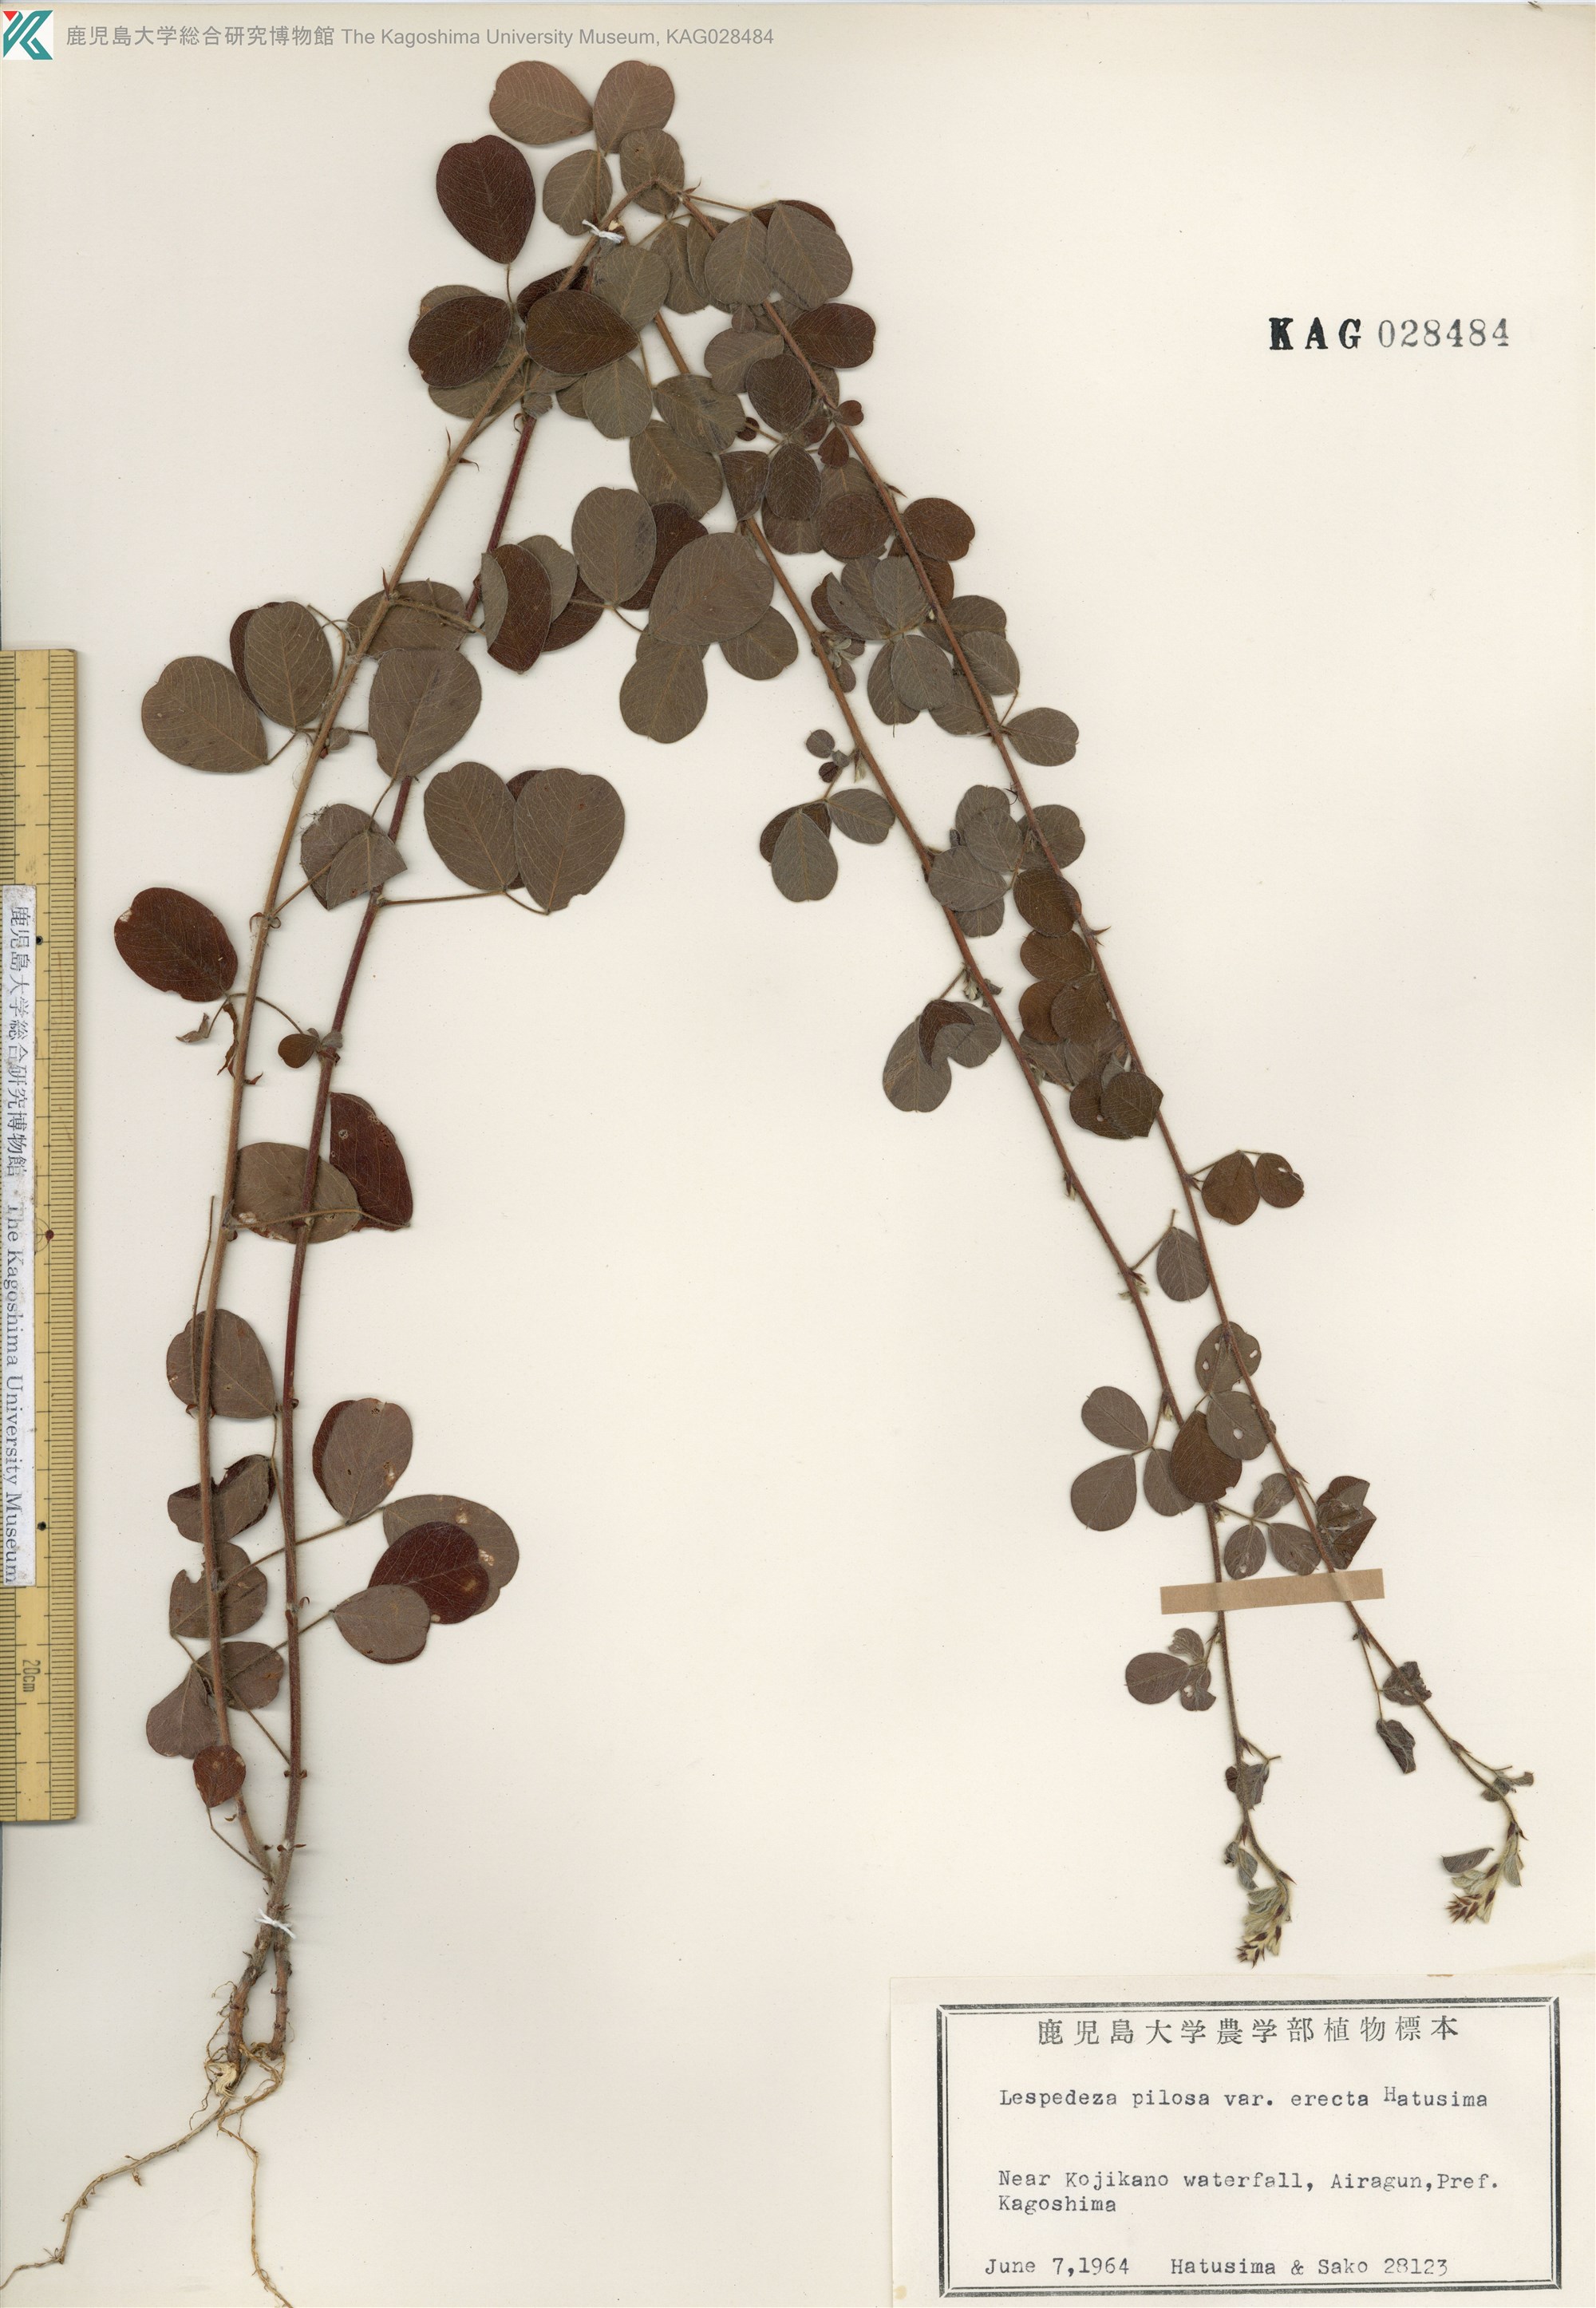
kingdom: Plantae
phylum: Tracheophyta
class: Magnoliopsida
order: Fabales
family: Fabaceae
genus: Lespedeza
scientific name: Lespedeza pilosa
